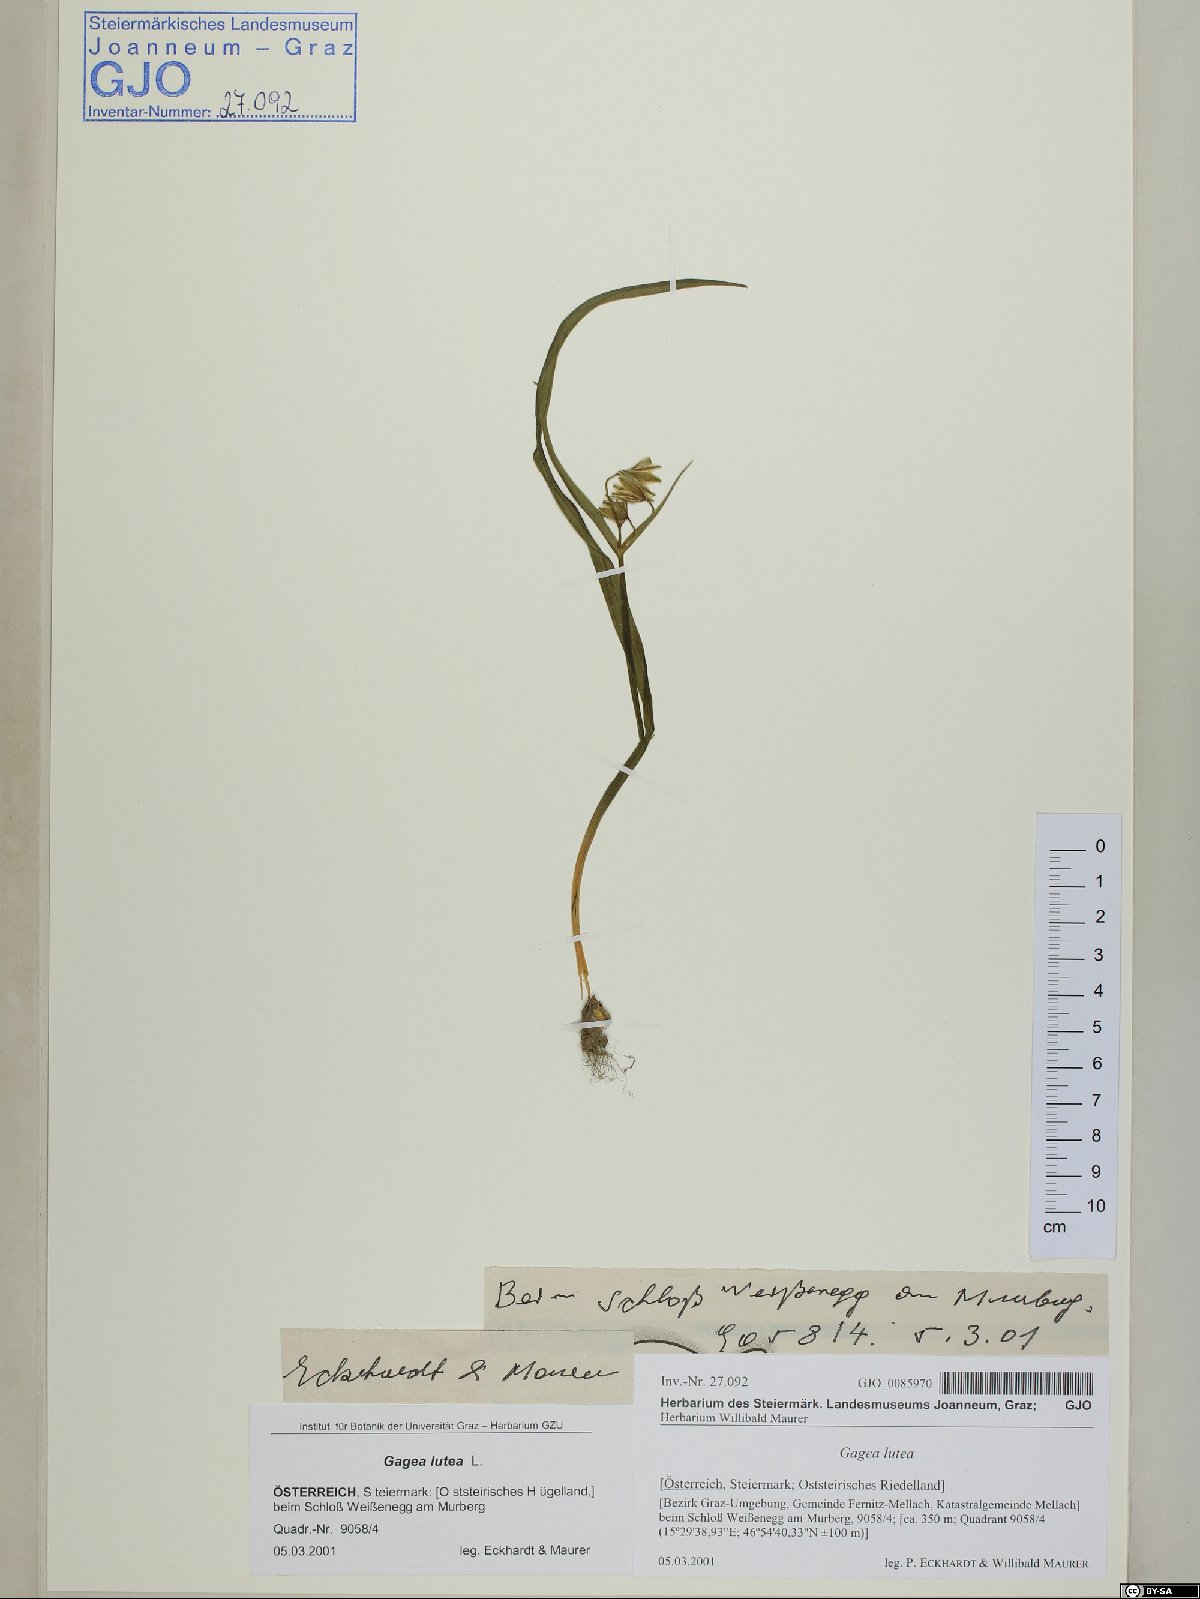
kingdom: Plantae
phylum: Tracheophyta
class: Liliopsida
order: Liliales
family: Liliaceae
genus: Gagea
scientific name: Gagea lutea
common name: Yellow star-of-bethlehem
